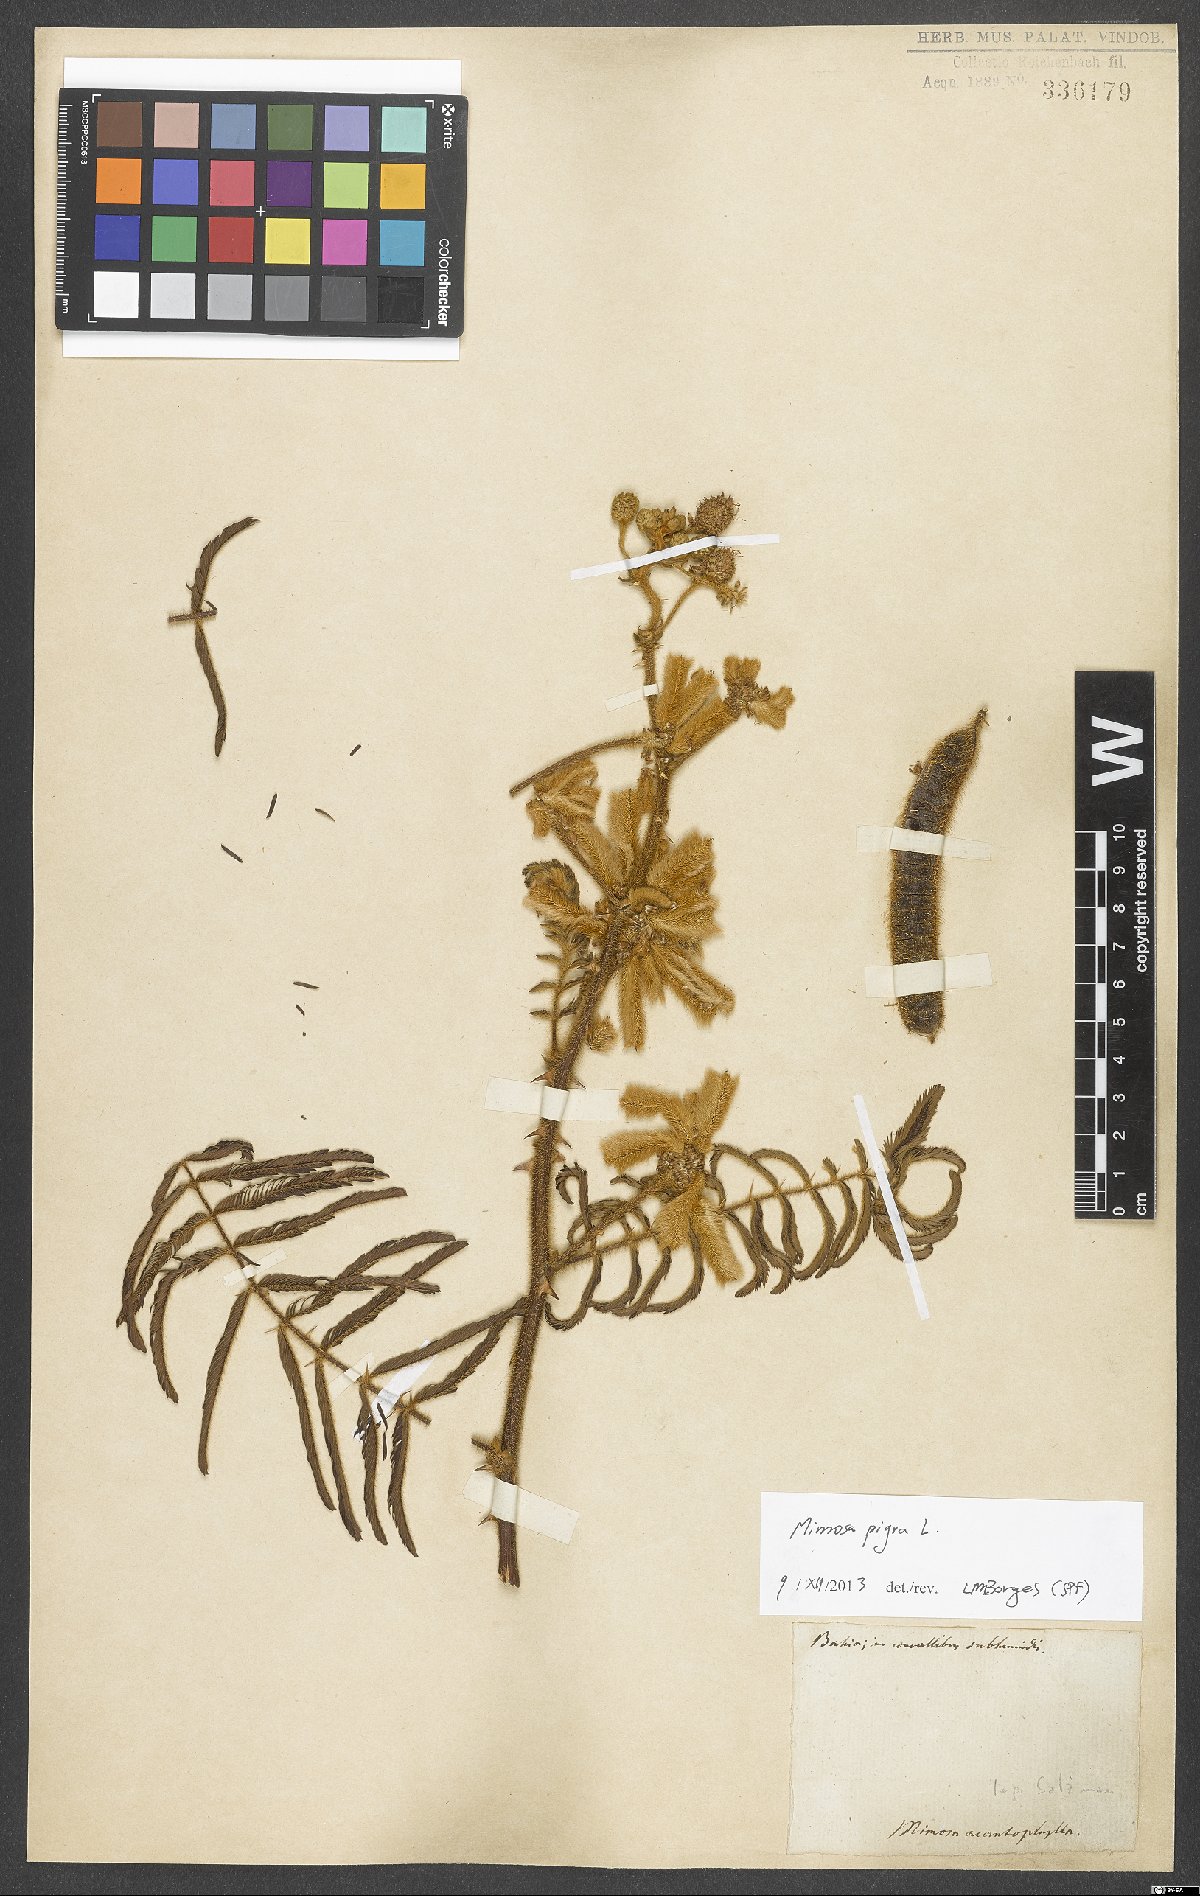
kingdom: Plantae
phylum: Tracheophyta
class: Magnoliopsida
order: Fabales
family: Fabaceae
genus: Mimosa
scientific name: Mimosa pigra
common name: Black mimosa
